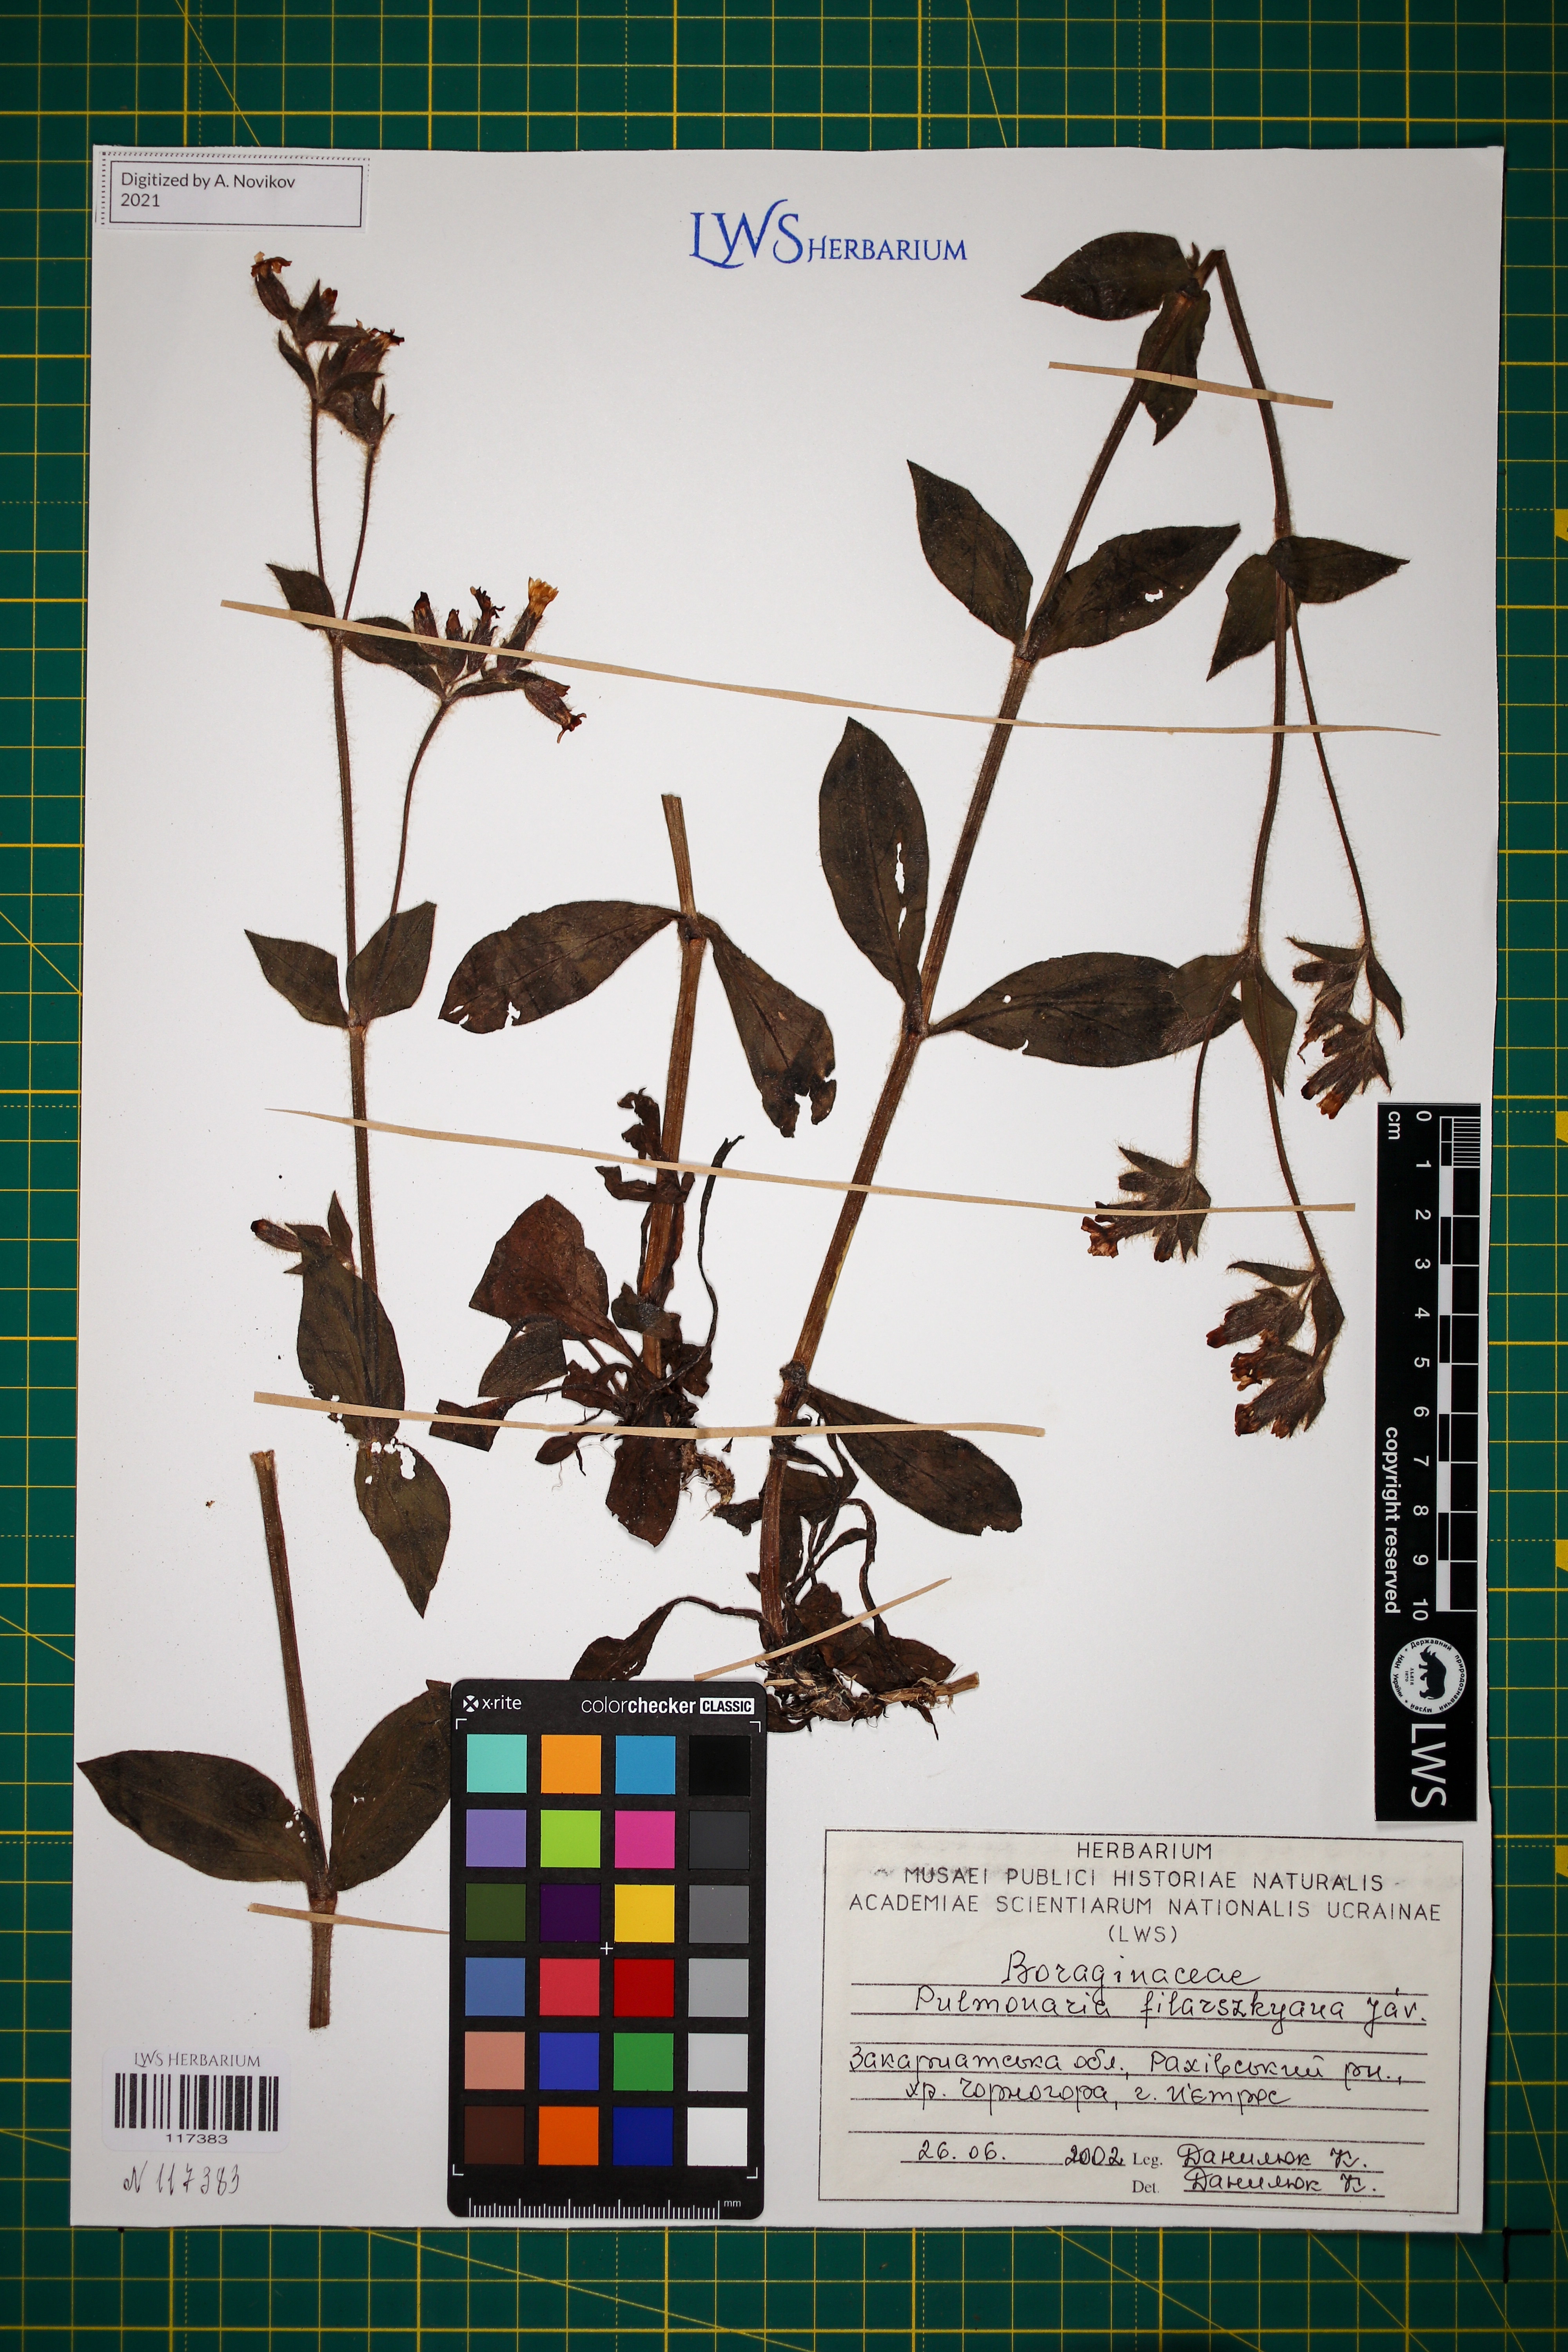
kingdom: Plantae
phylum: Tracheophyta
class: Magnoliopsida
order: Boraginales
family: Boraginaceae
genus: Pulmonaria
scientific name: Pulmonaria filarszkyana
